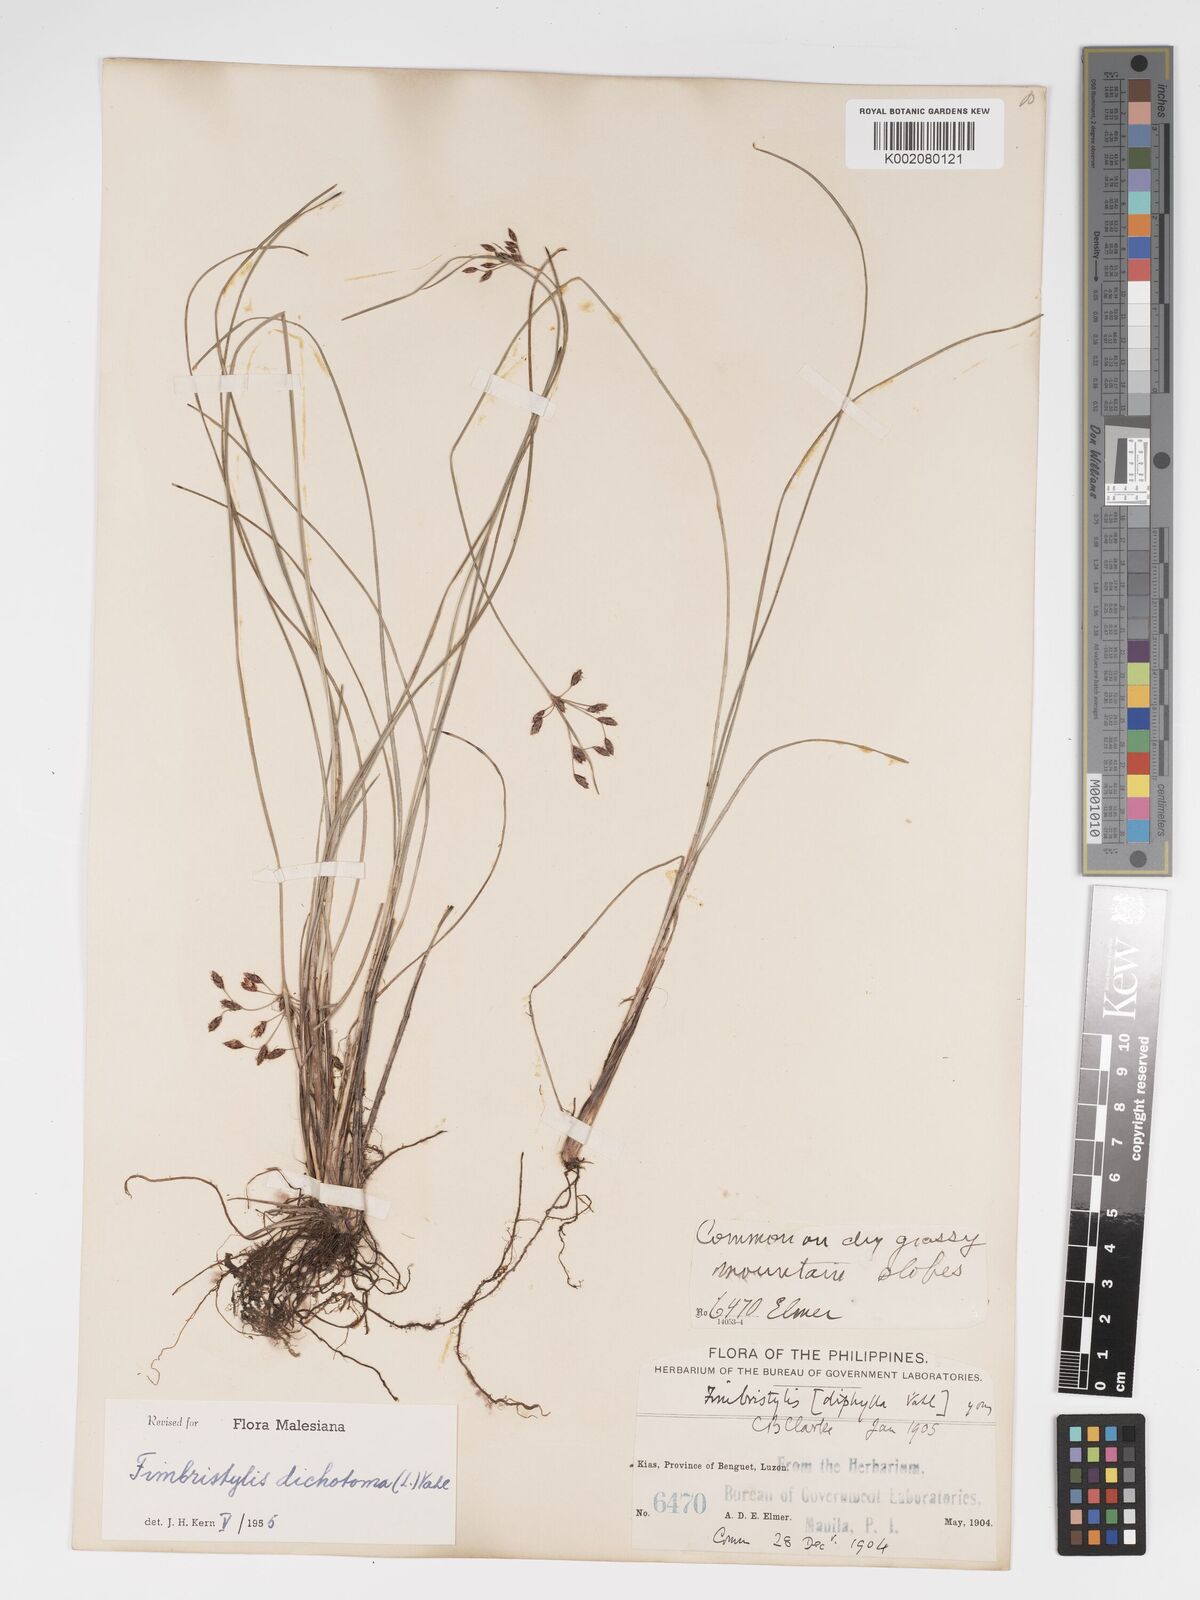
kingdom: Plantae
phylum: Tracheophyta
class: Liliopsida
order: Poales
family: Cyperaceae
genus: Fimbristylis
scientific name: Fimbristylis dichotoma
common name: Forked fimbry
